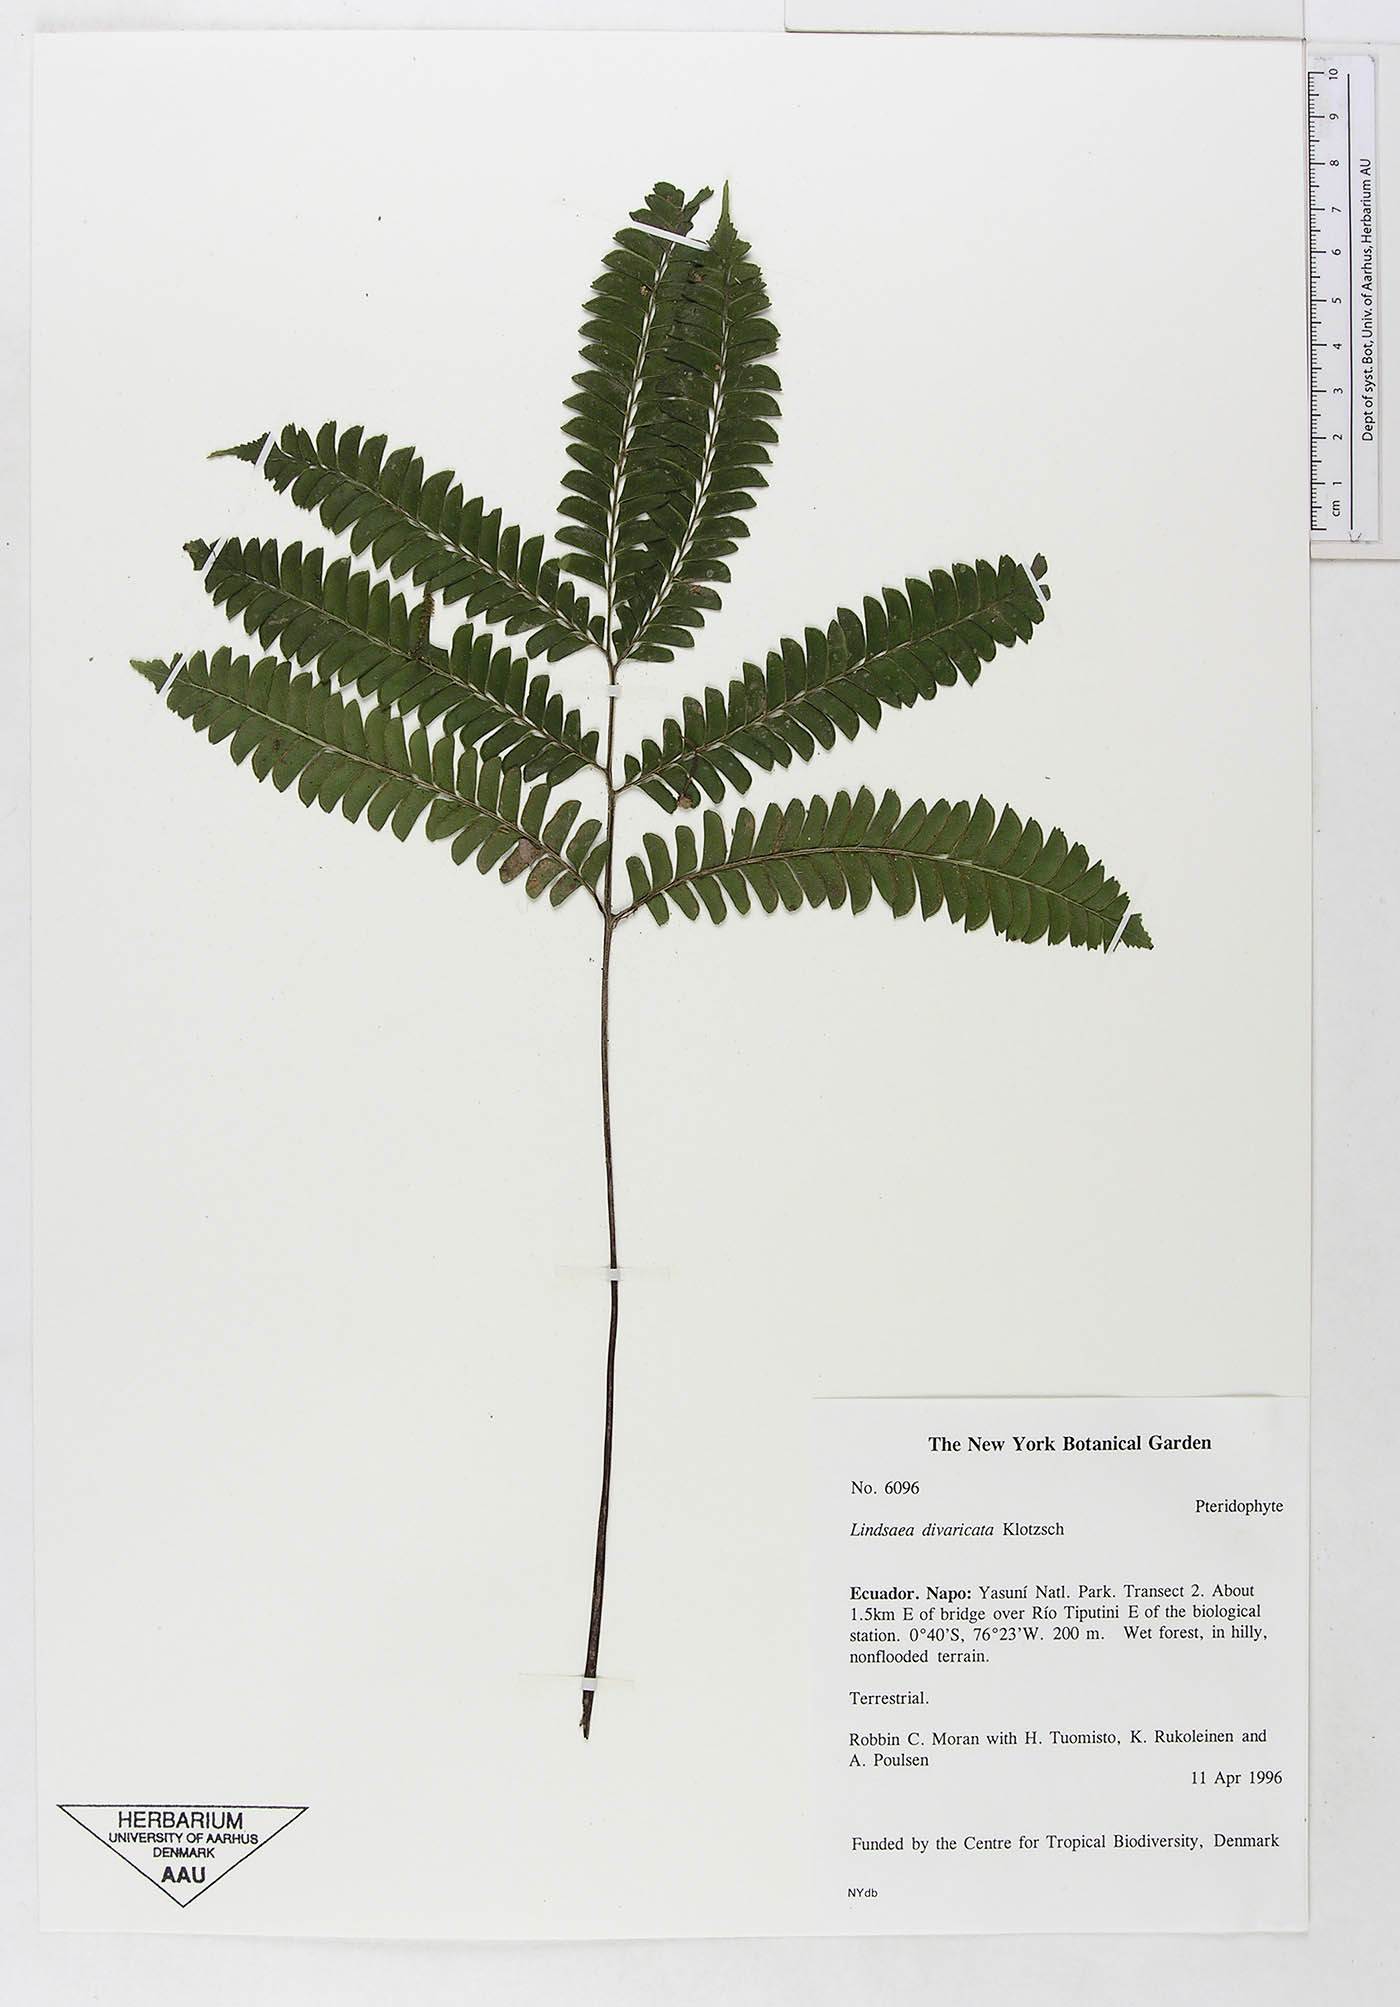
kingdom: Plantae
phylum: Tracheophyta
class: Polypodiopsida
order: Polypodiales
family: Lindsaeaceae
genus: Lindsaea
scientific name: Lindsaea divaricata
